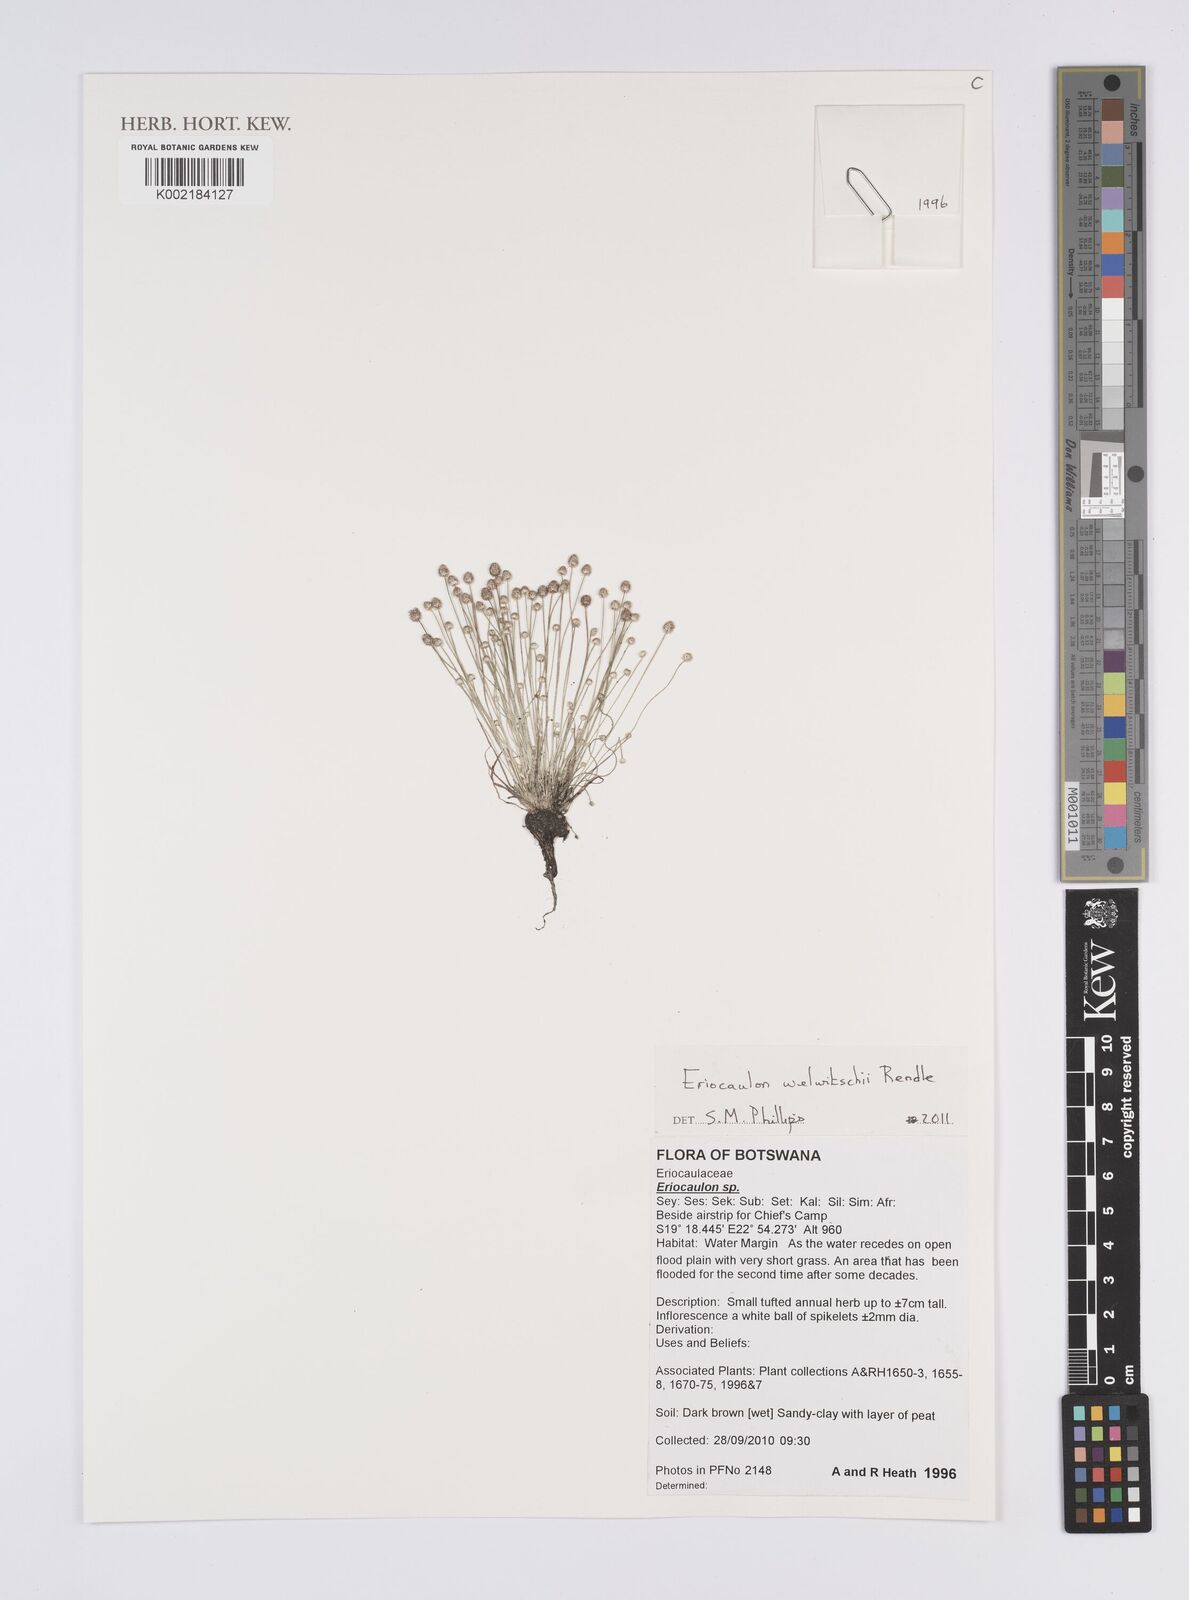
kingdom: Plantae
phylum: Tracheophyta
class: Liliopsida
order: Poales
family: Eriocaulaceae
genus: Eriocaulon
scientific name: Eriocaulon welwitschii
